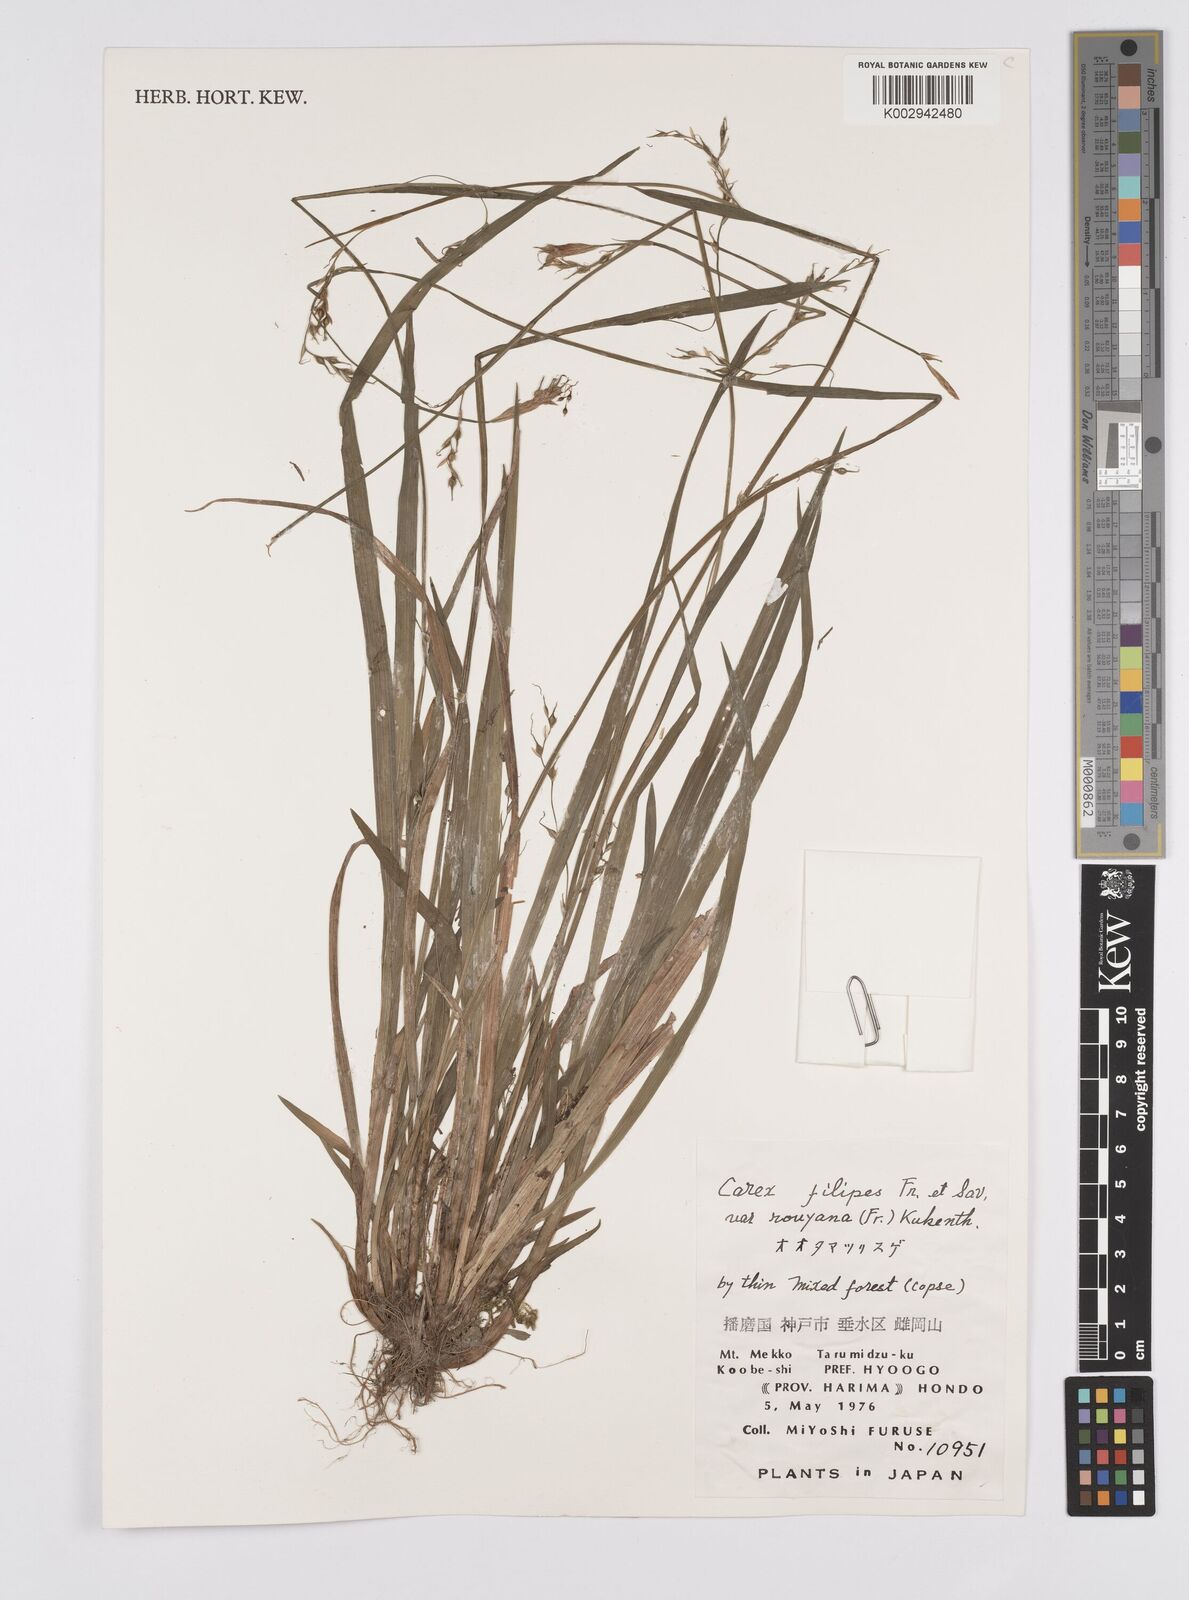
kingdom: Plantae
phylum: Tracheophyta
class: Liliopsida
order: Poales
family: Cyperaceae
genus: Carex
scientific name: Carex filipes
